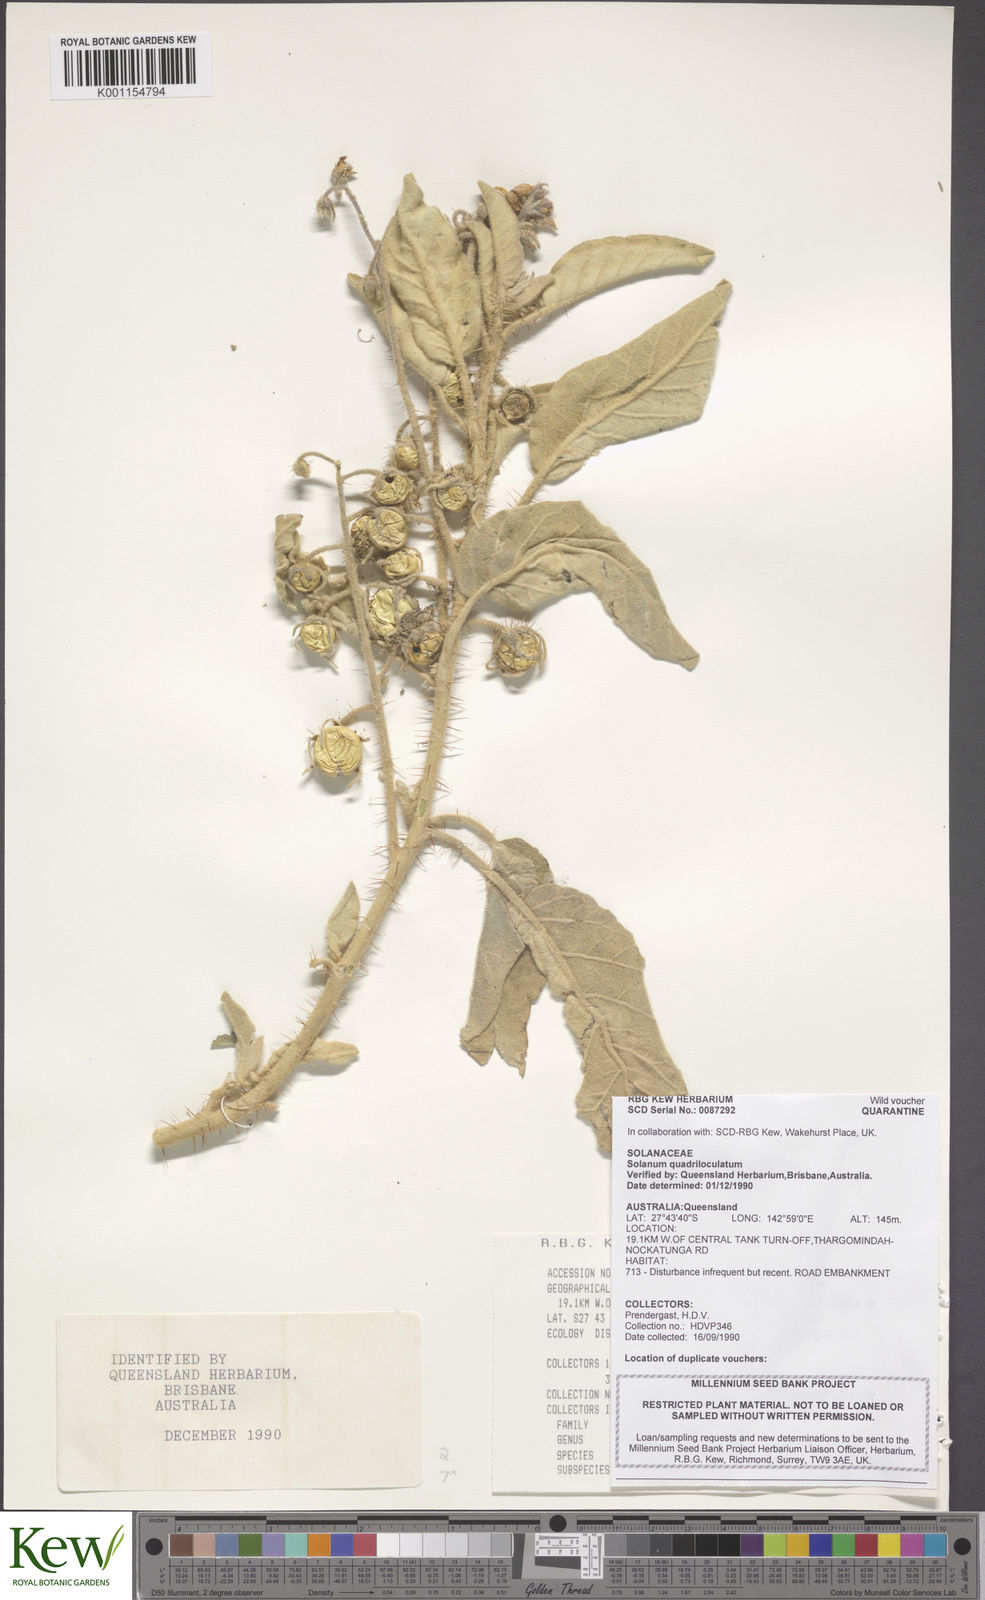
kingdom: Plantae
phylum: Tracheophyta
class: Magnoliopsida
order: Solanales
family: Solanaceae
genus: Solanum
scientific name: Solanum quadriloculatum
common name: Wild tomato
